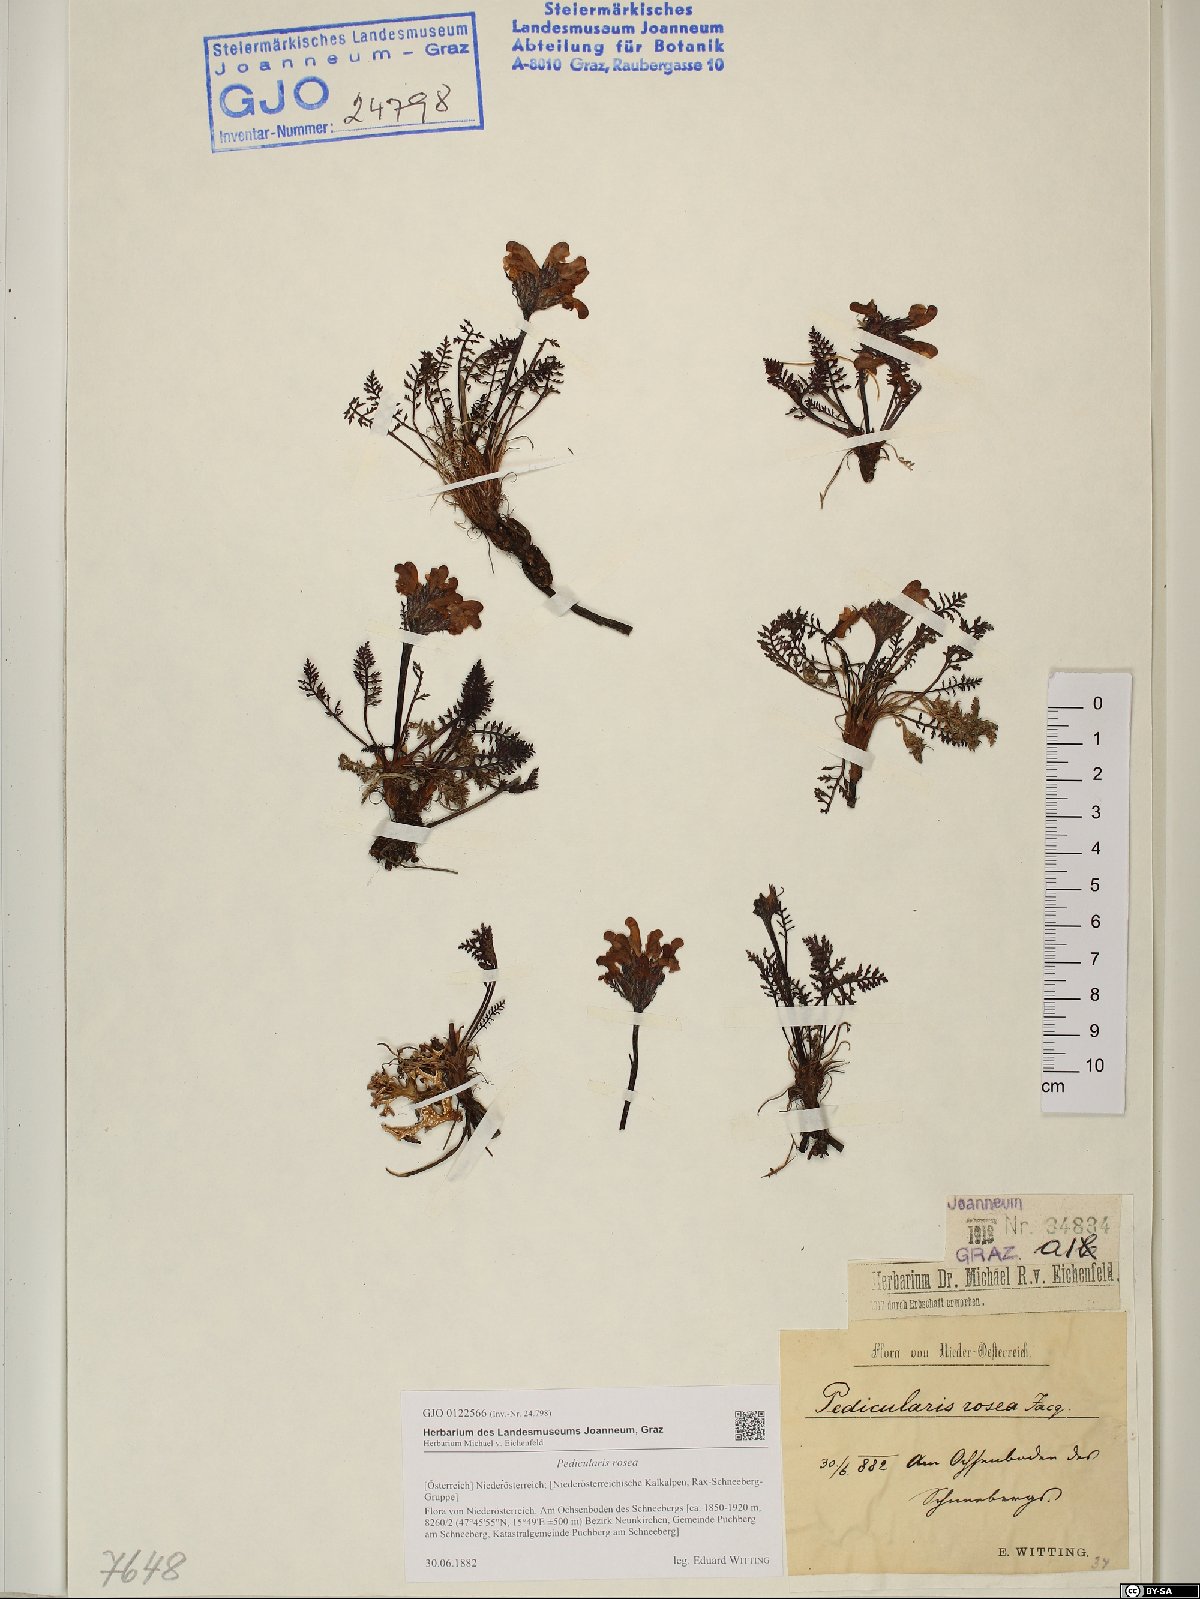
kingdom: Plantae
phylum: Tracheophyta
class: Magnoliopsida
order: Lamiales
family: Orobanchaceae
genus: Pedicularis
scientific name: Pedicularis rosea
